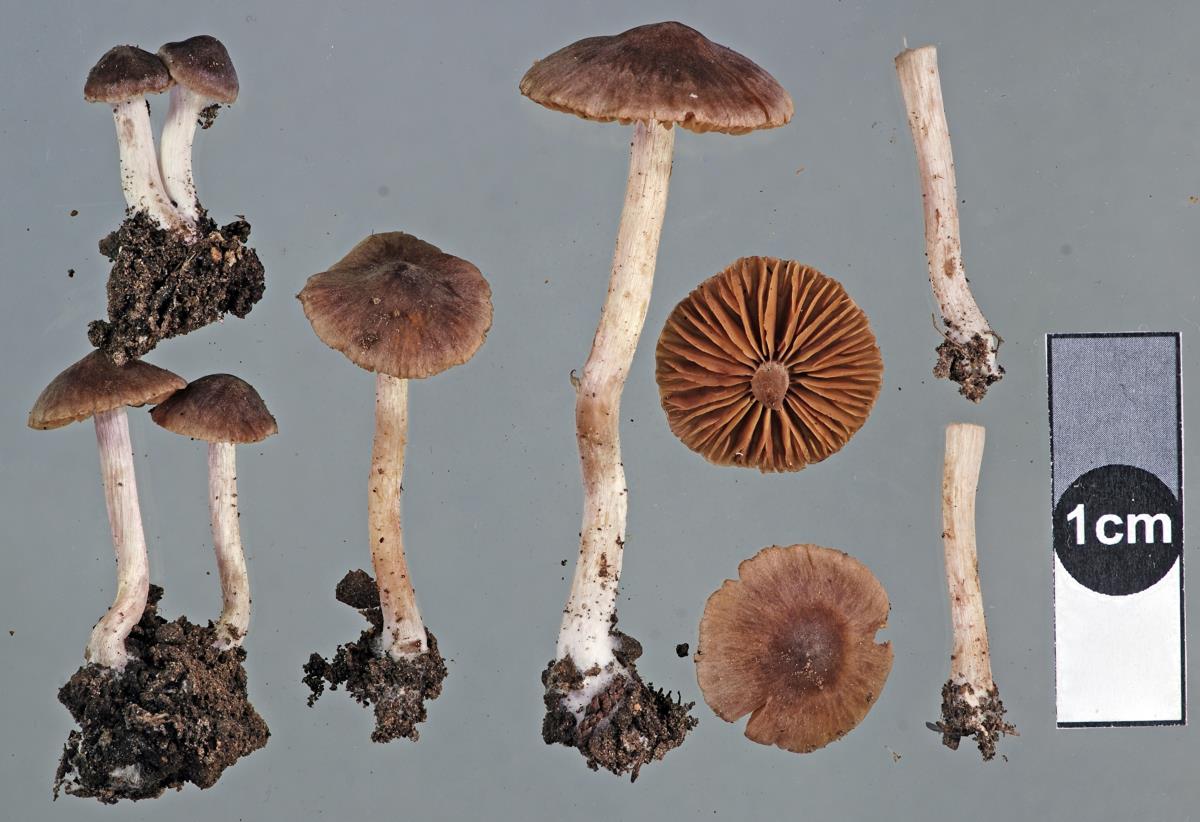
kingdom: Fungi
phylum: Basidiomycota
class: Agaricomycetes
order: Agaricales
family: Cortinariaceae
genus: Cortinarius
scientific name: Cortinarius castaneus
